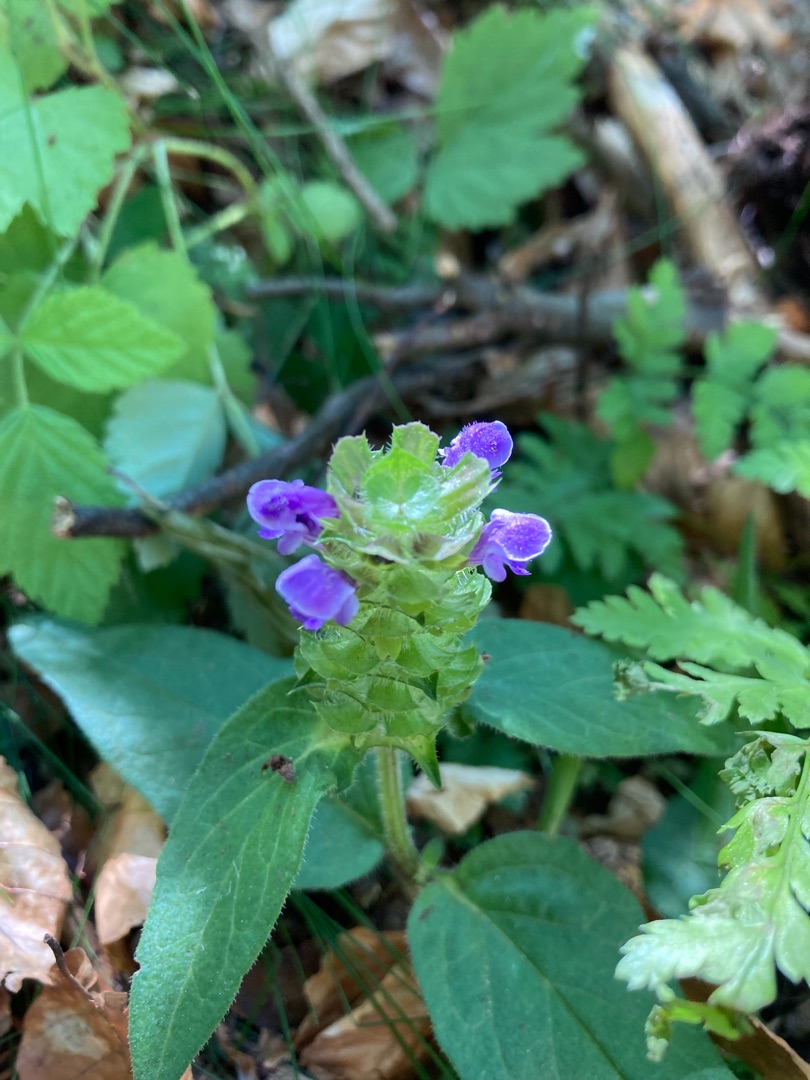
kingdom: Plantae
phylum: Tracheophyta
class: Magnoliopsida
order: Lamiales
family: Lamiaceae
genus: Prunella
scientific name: Prunella vulgaris
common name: Almindelig brunelle
